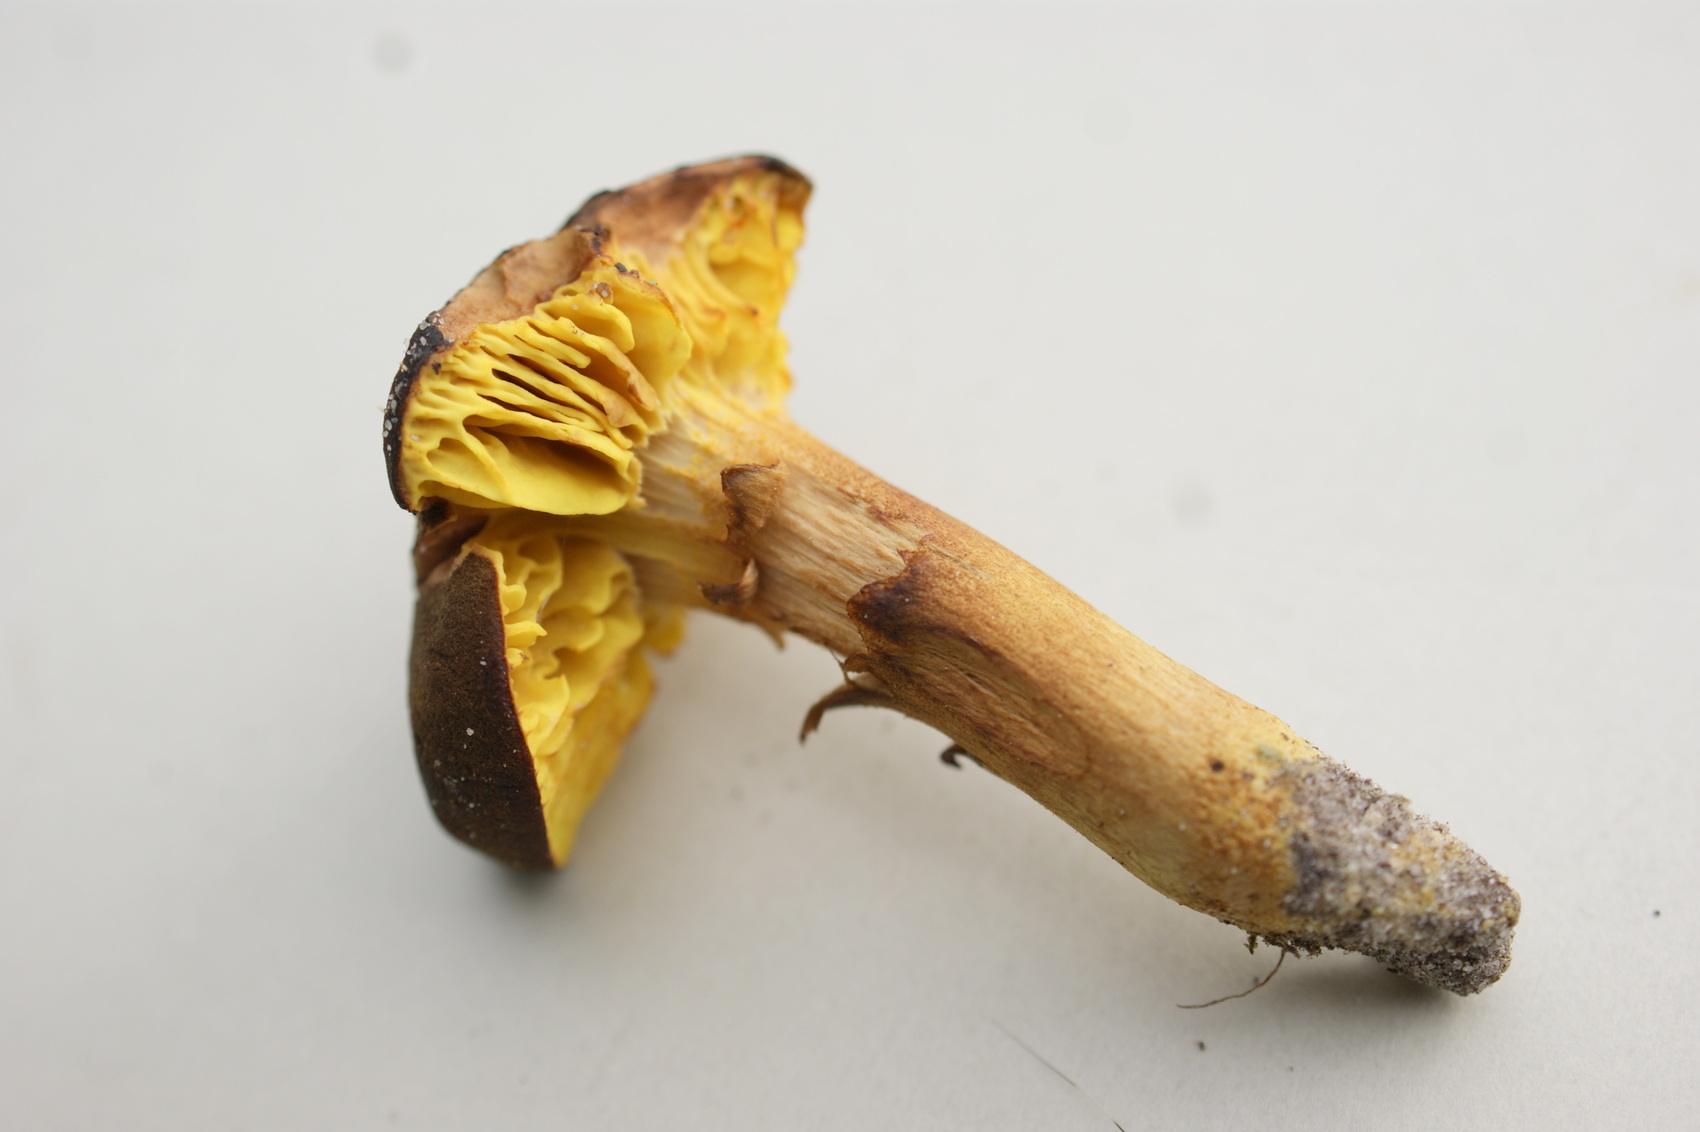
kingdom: Fungi
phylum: Basidiomycota
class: Agaricomycetes
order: Boletales
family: Boletaceae
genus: Phylloporus
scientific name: Phylloporus pelletieri
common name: lamelrørhat
